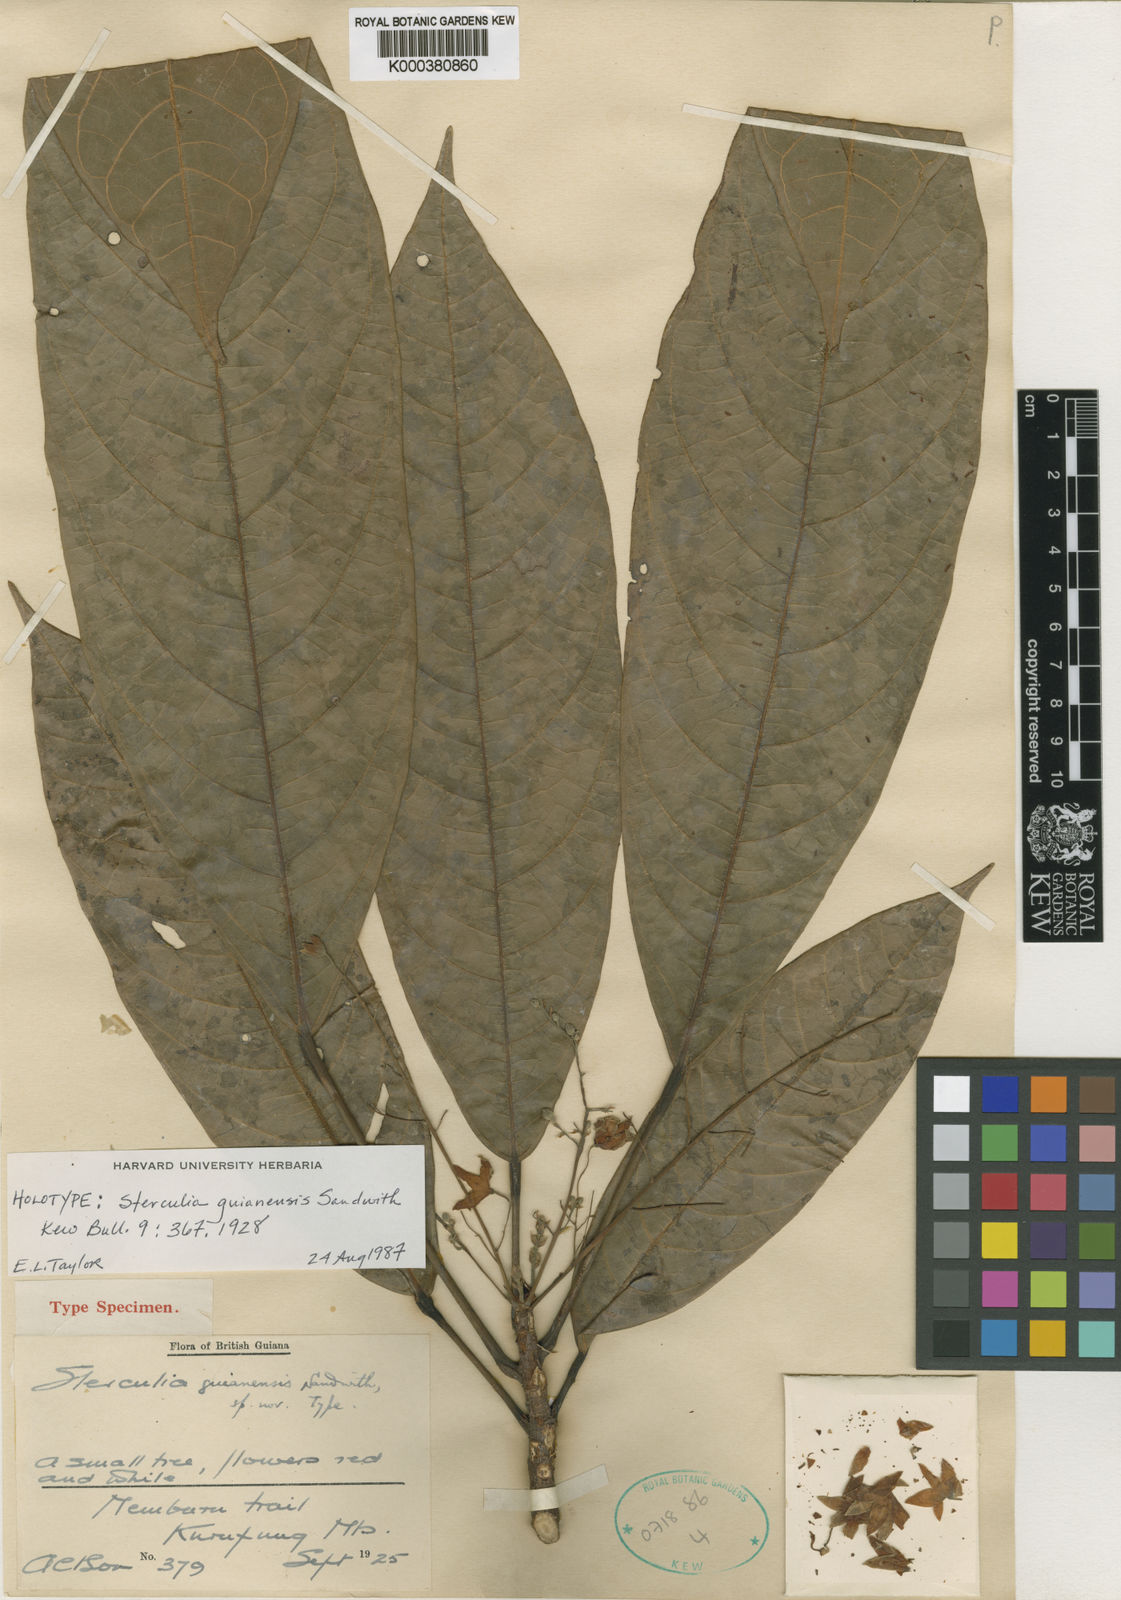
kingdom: Plantae
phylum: Tracheophyta
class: Magnoliopsida
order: Malvales
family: Malvaceae
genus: Sterculia
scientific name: Sterculia guianensis
